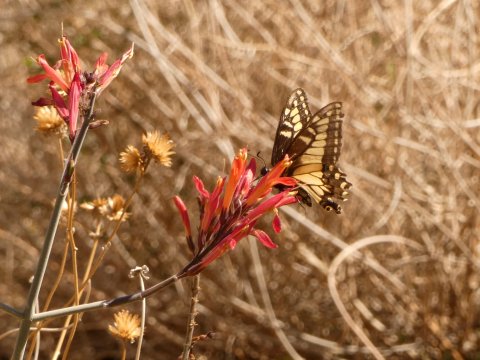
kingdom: Animalia
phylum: Arthropoda
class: Insecta
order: Lepidoptera
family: Papilionidae
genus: Papilio
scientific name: Papilio zelicaon
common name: Anise Swallowtail
